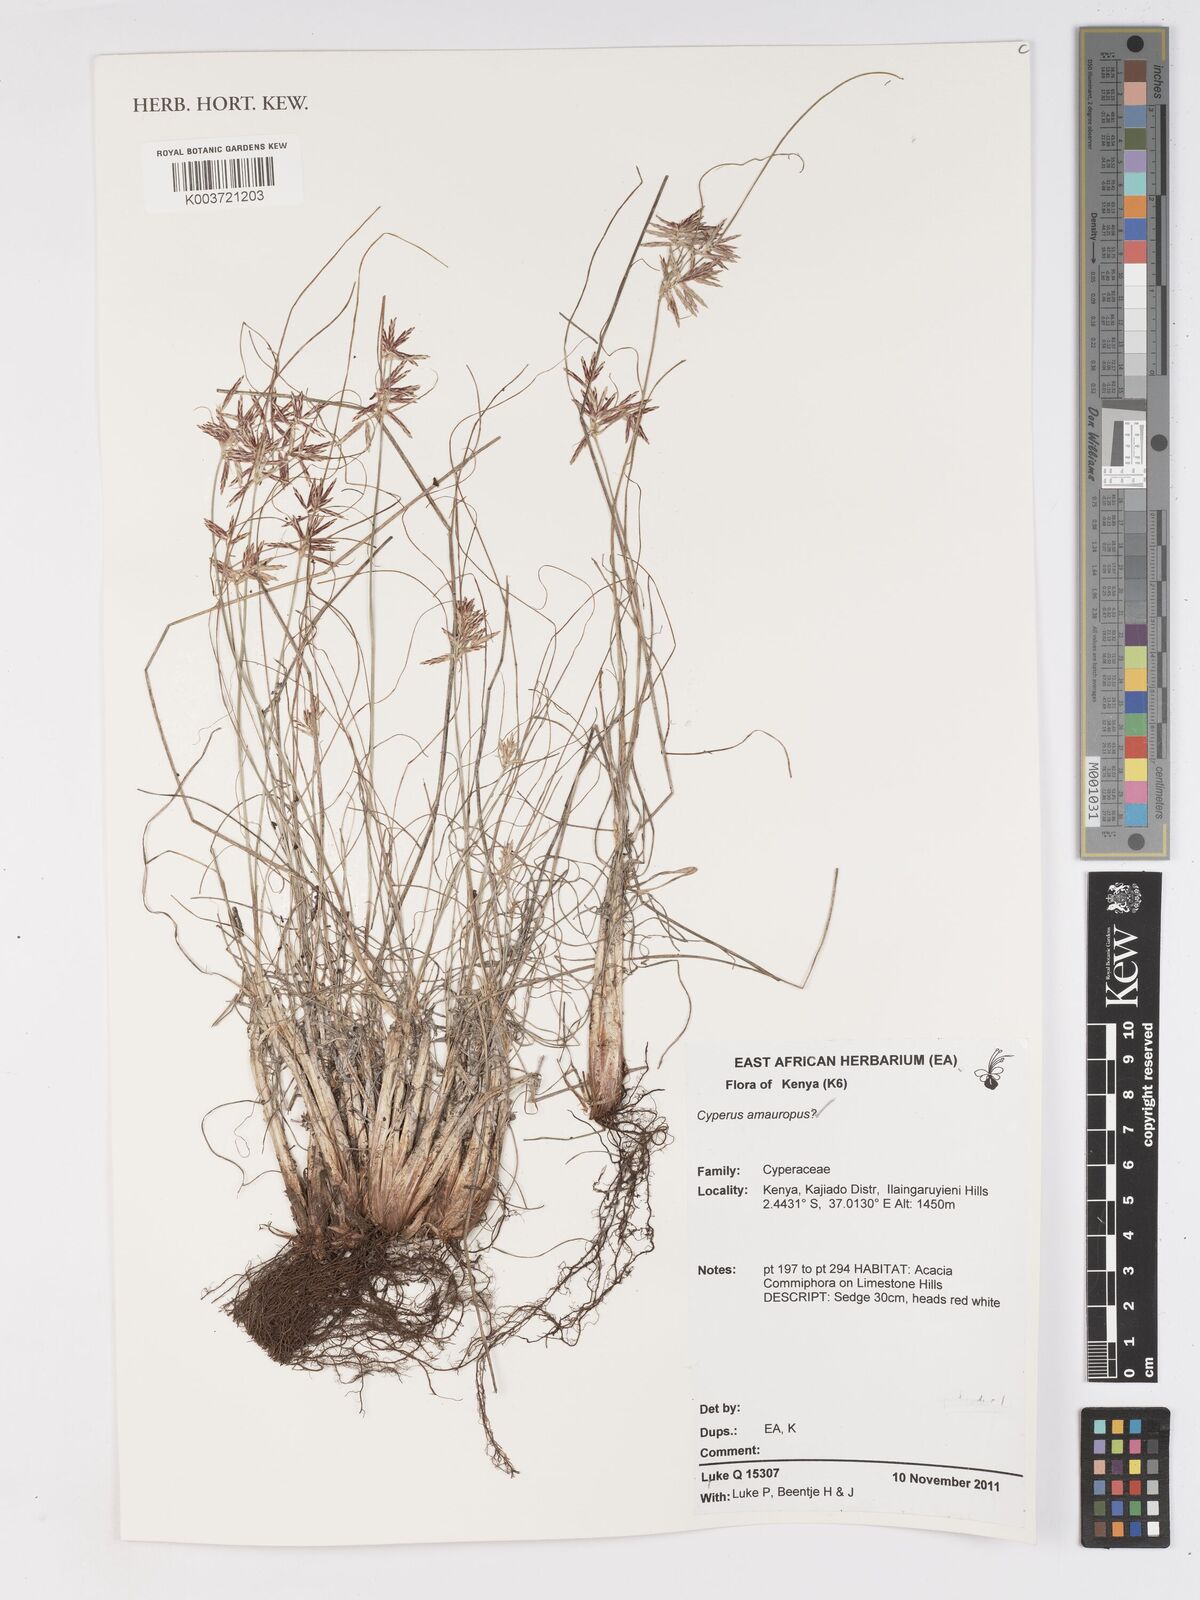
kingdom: Plantae
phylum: Tracheophyta
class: Liliopsida
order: Poales
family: Cyperaceae
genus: Cyperus
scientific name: Cyperus amauropus
